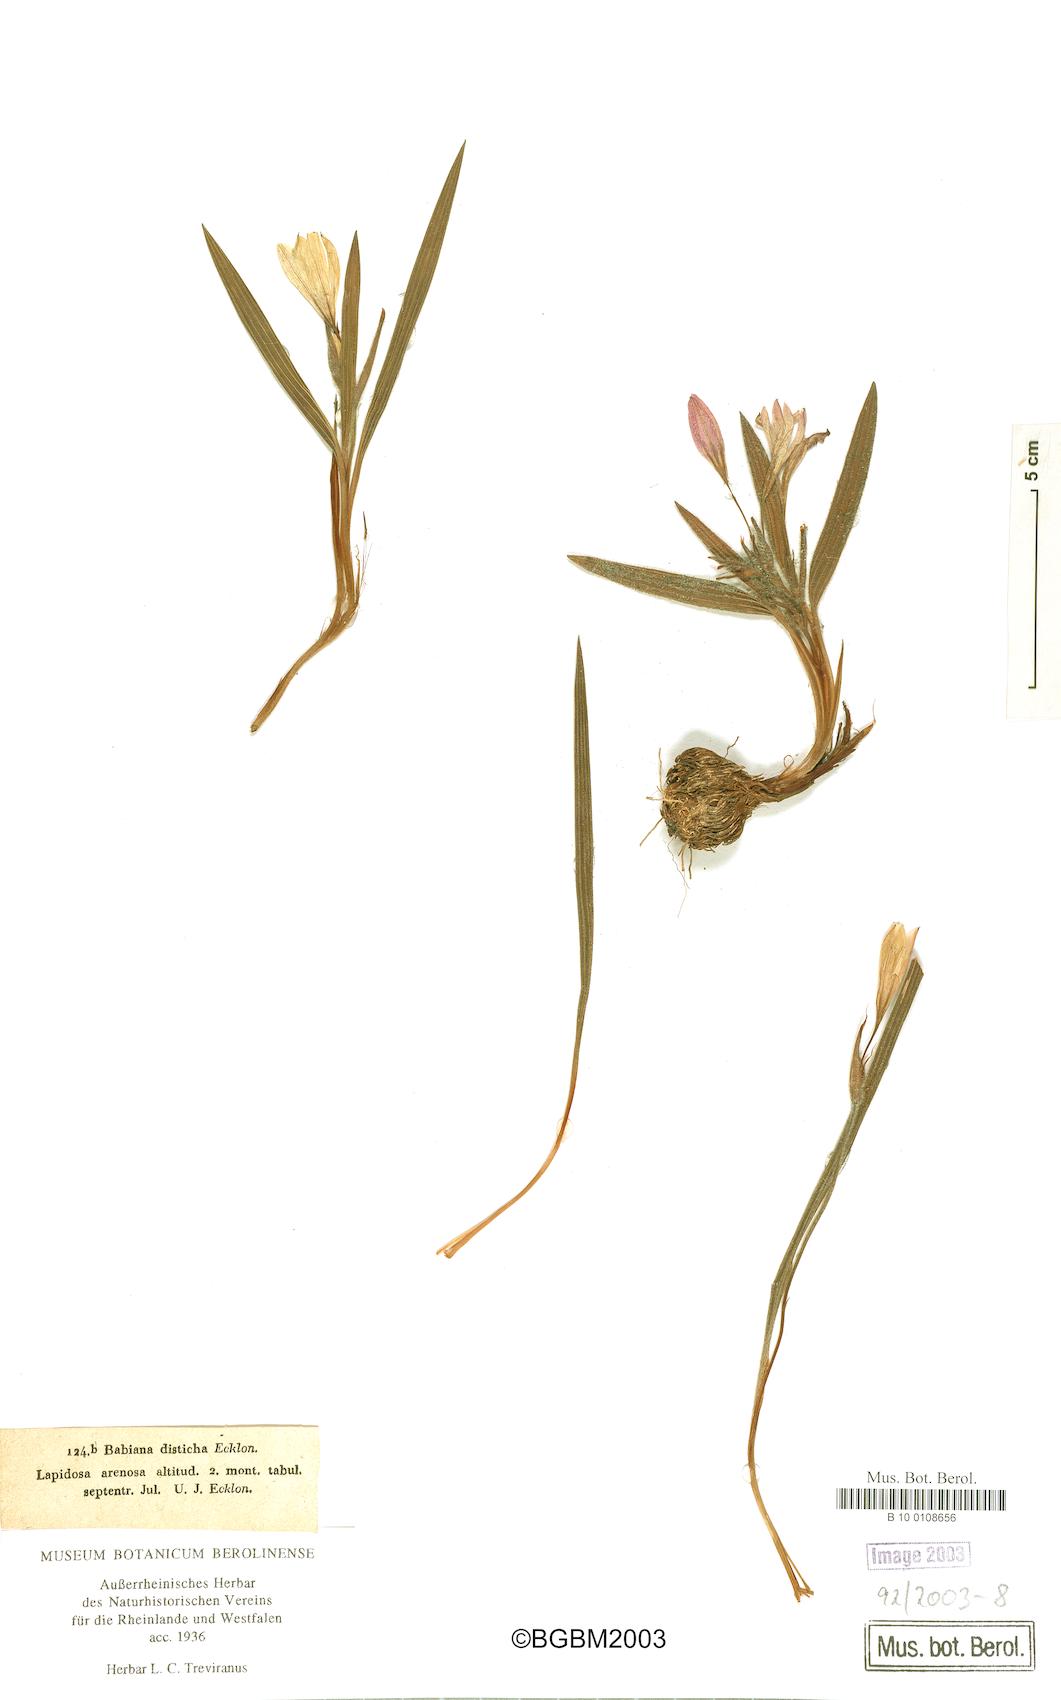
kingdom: Plantae
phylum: Tracheophyta
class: Liliopsida
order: Asparagales
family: Iridaceae
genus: Babiana
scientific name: Babiana fragrans
